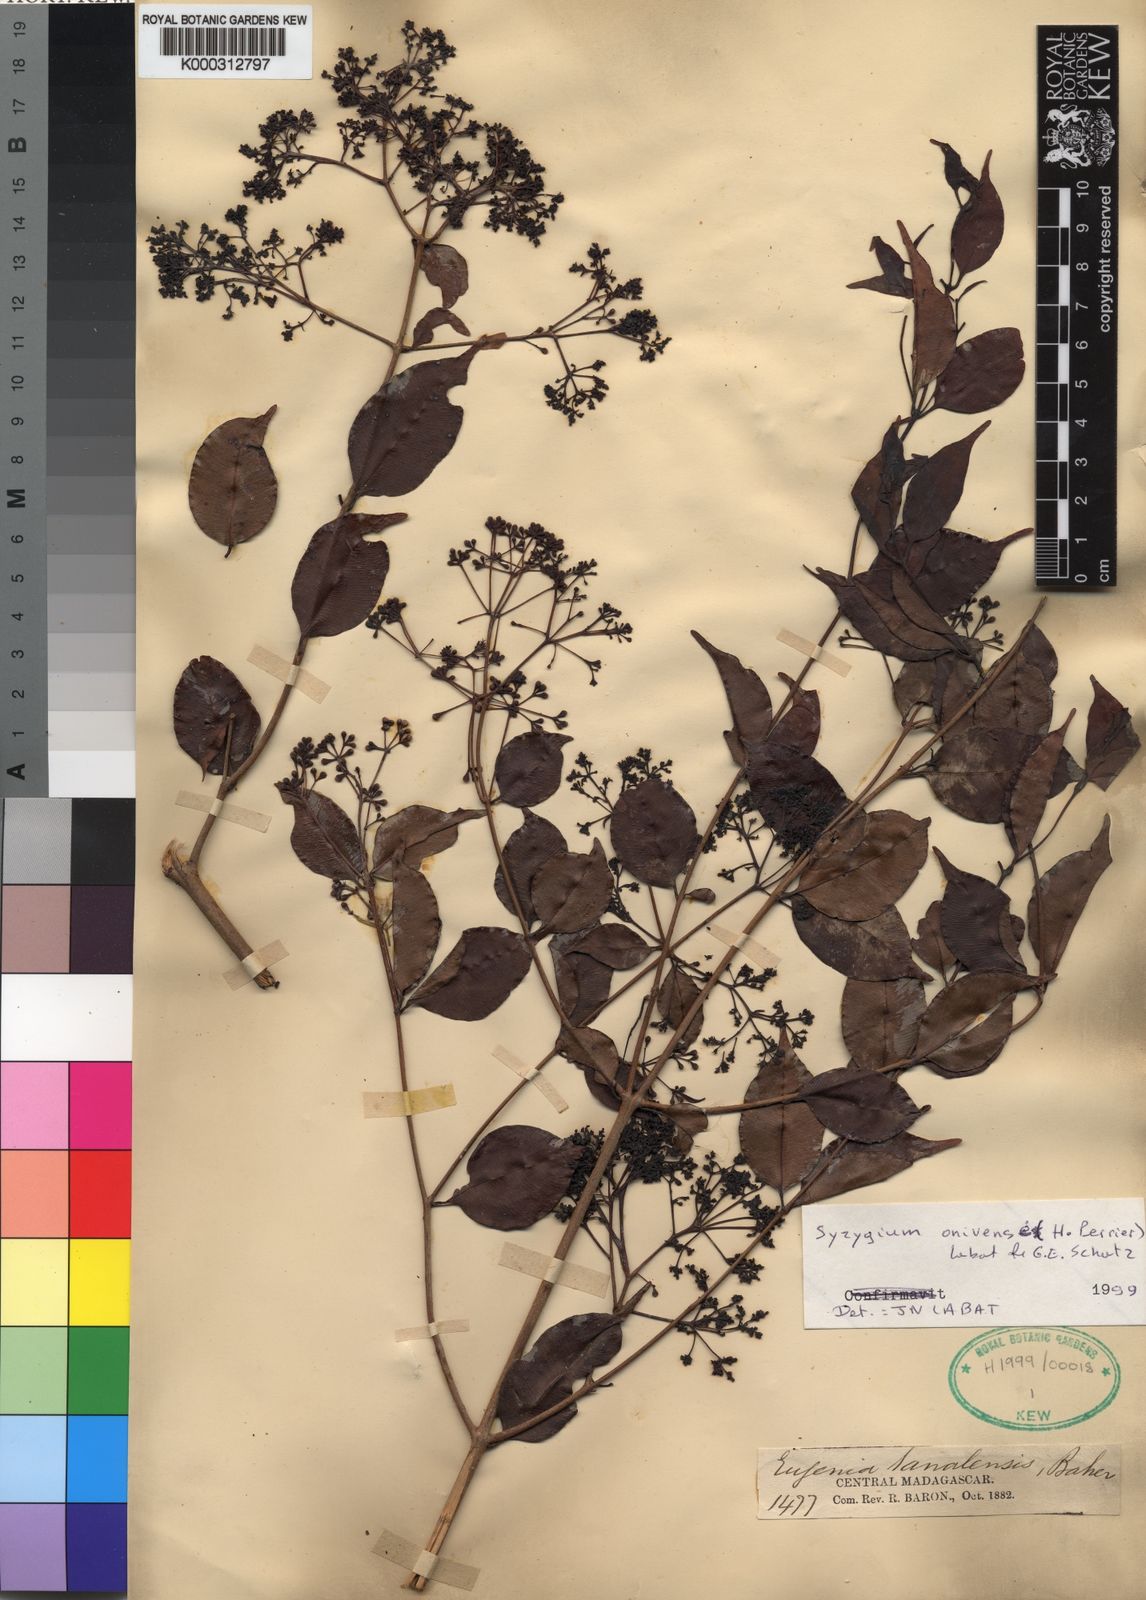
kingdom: Plantae
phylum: Tracheophyta
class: Magnoliopsida
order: Myrtales
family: Myrtaceae
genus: Syzygium
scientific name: Syzygium
